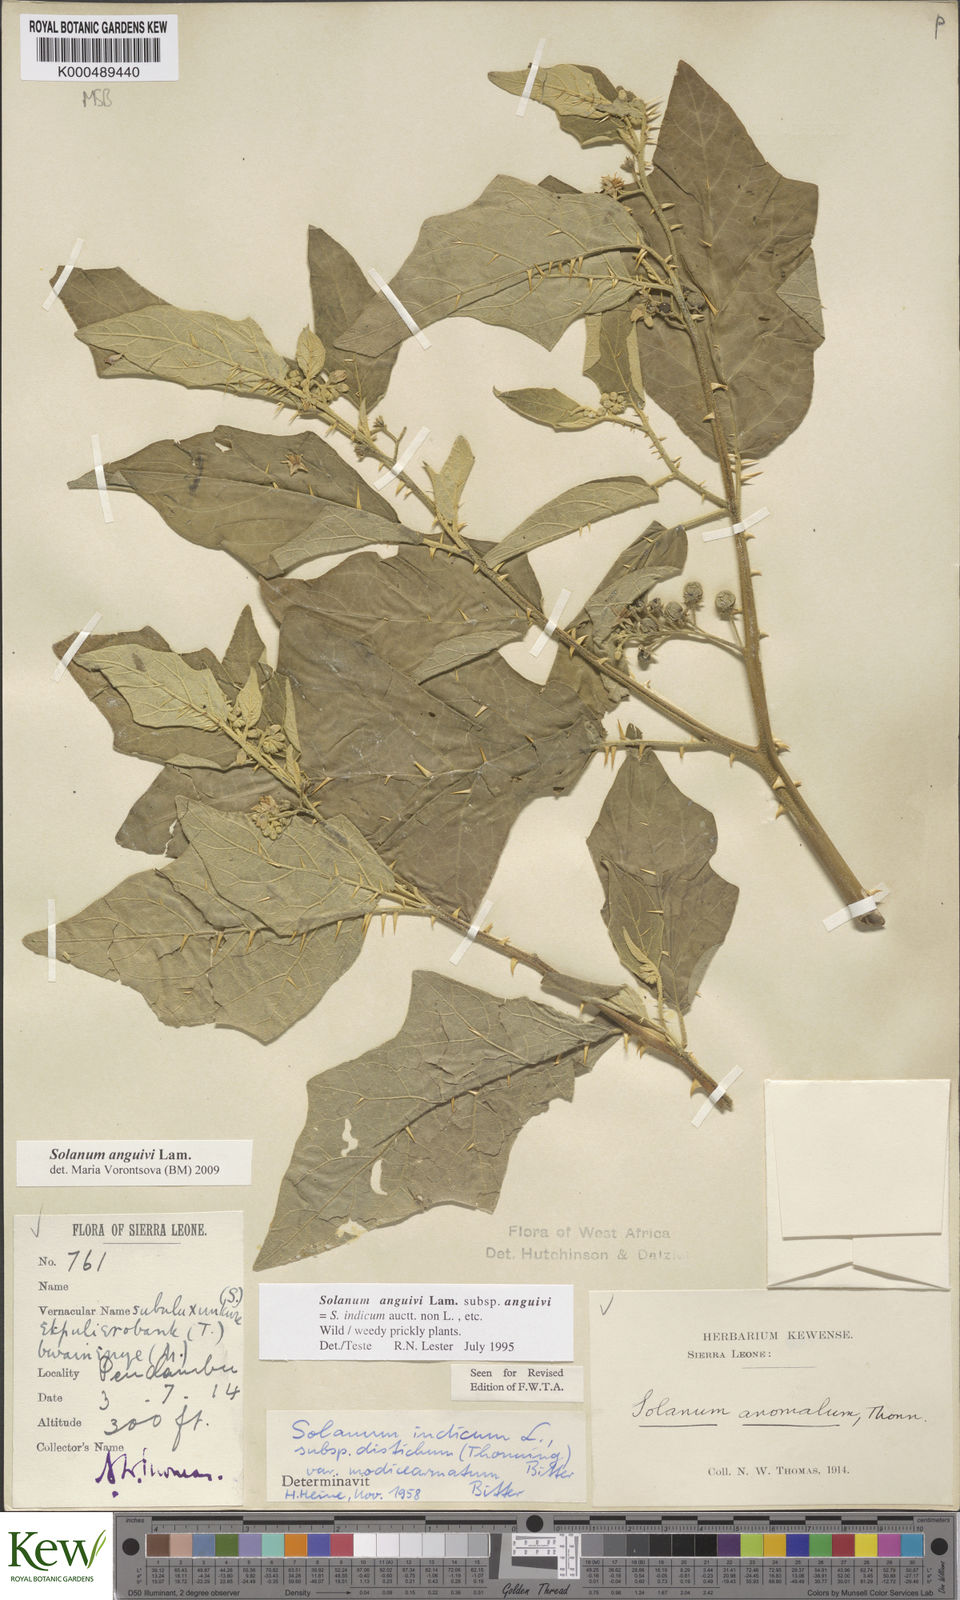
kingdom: Plantae
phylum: Tracheophyta
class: Magnoliopsida
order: Solanales
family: Solanaceae
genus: Solanum
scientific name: Solanum anguivi
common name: Forest bitterberry
